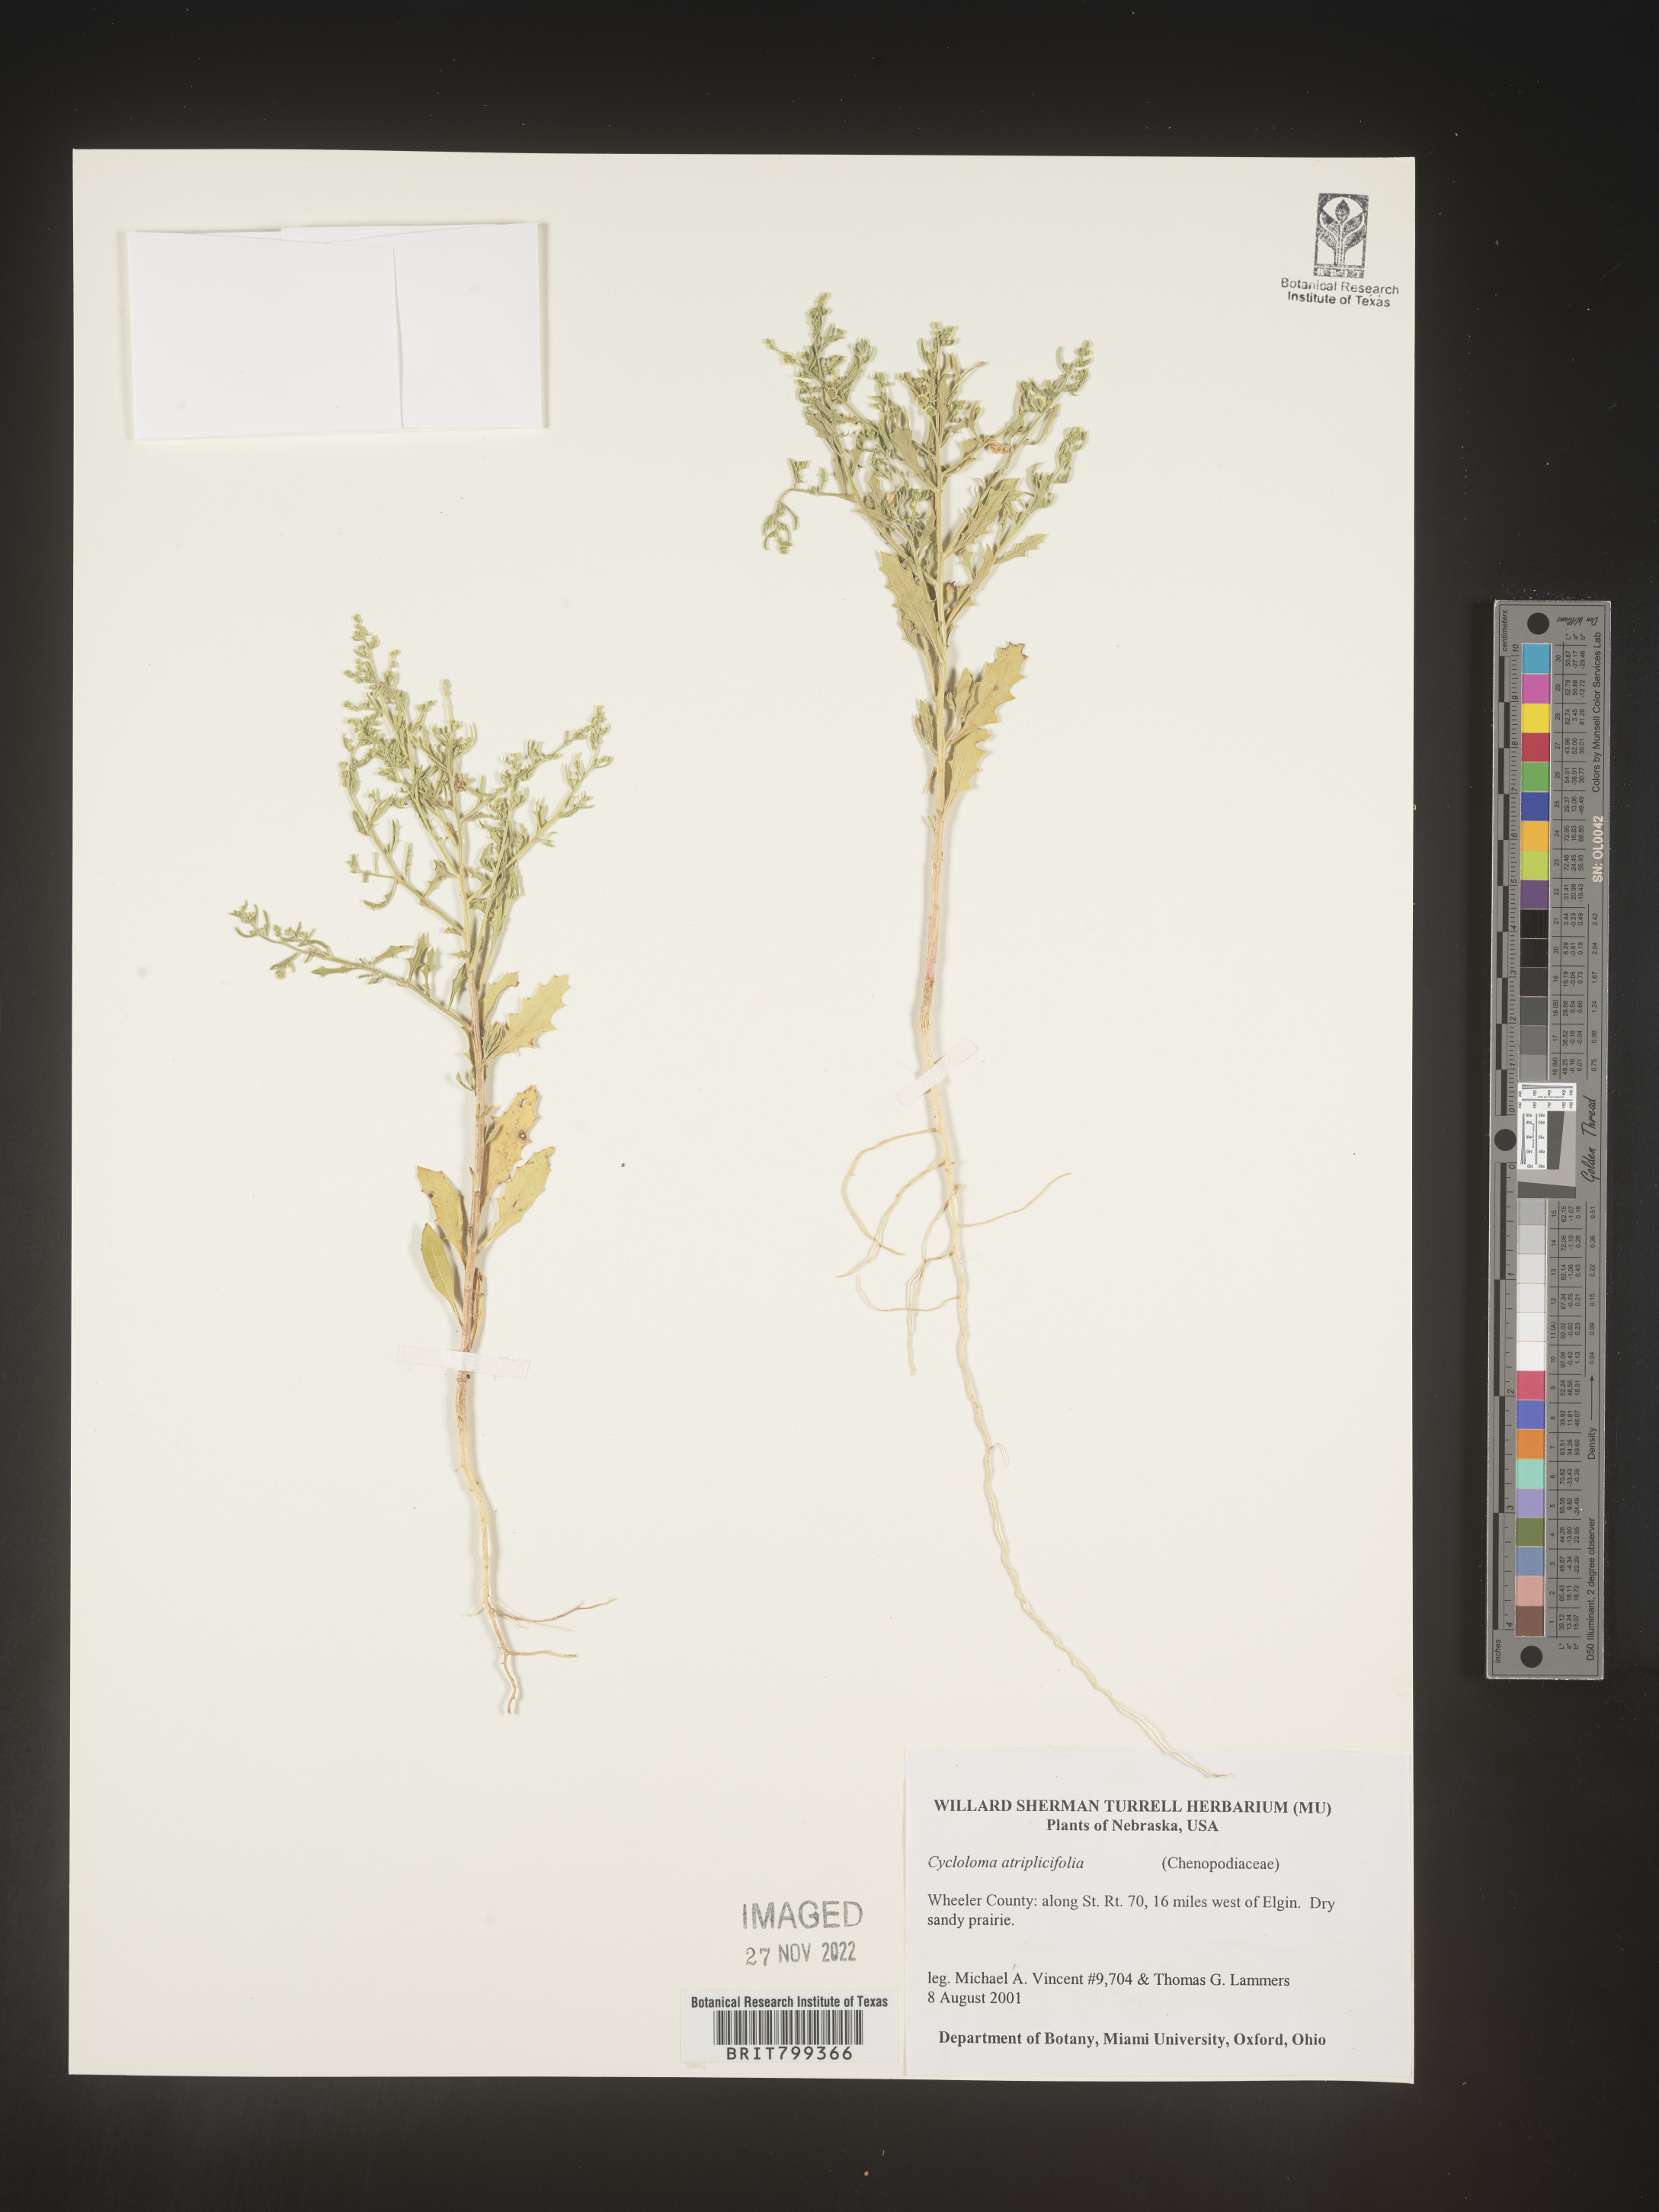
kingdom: Plantae
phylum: Tracheophyta
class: Magnoliopsida
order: Caryophyllales
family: Amaranthaceae
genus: Dysphania
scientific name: Dysphania atriplicifolia
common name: Plains tumbleweed
